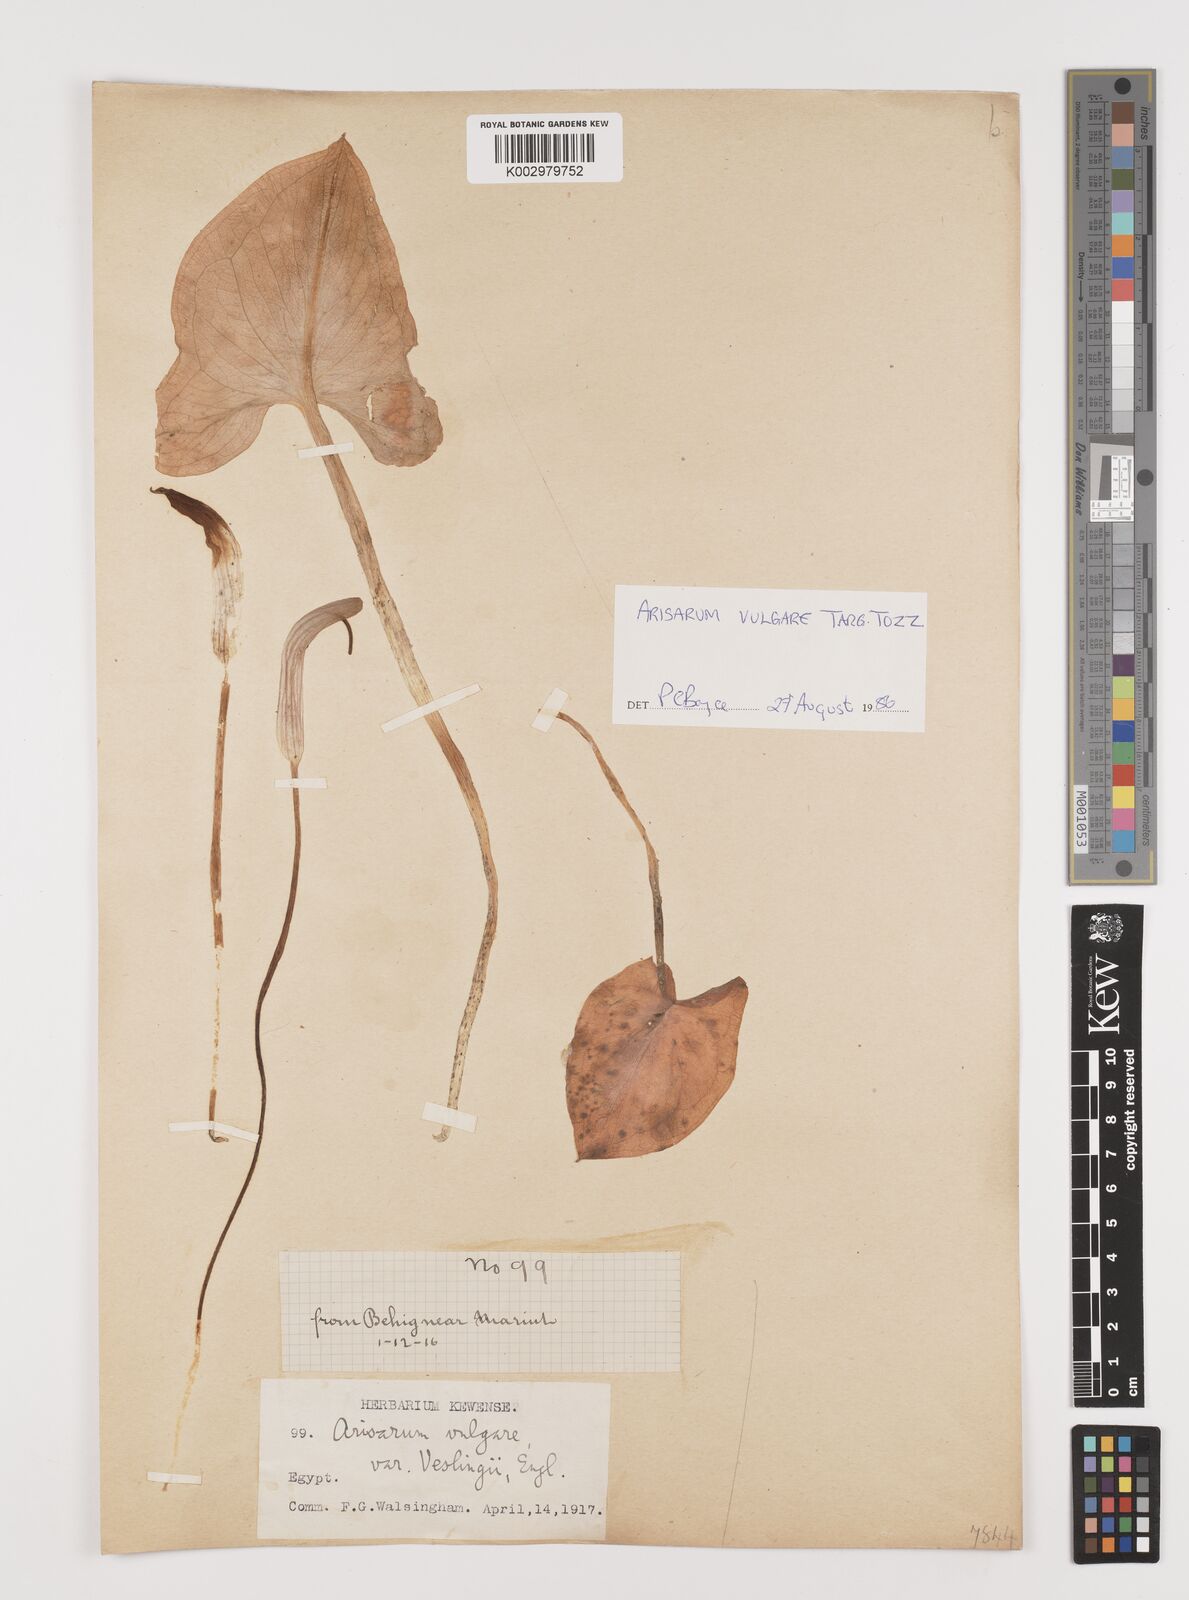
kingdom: Plantae
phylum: Tracheophyta
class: Liliopsida
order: Alismatales
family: Araceae
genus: Arisarum
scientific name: Arisarum vulgare
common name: Common arisarum
